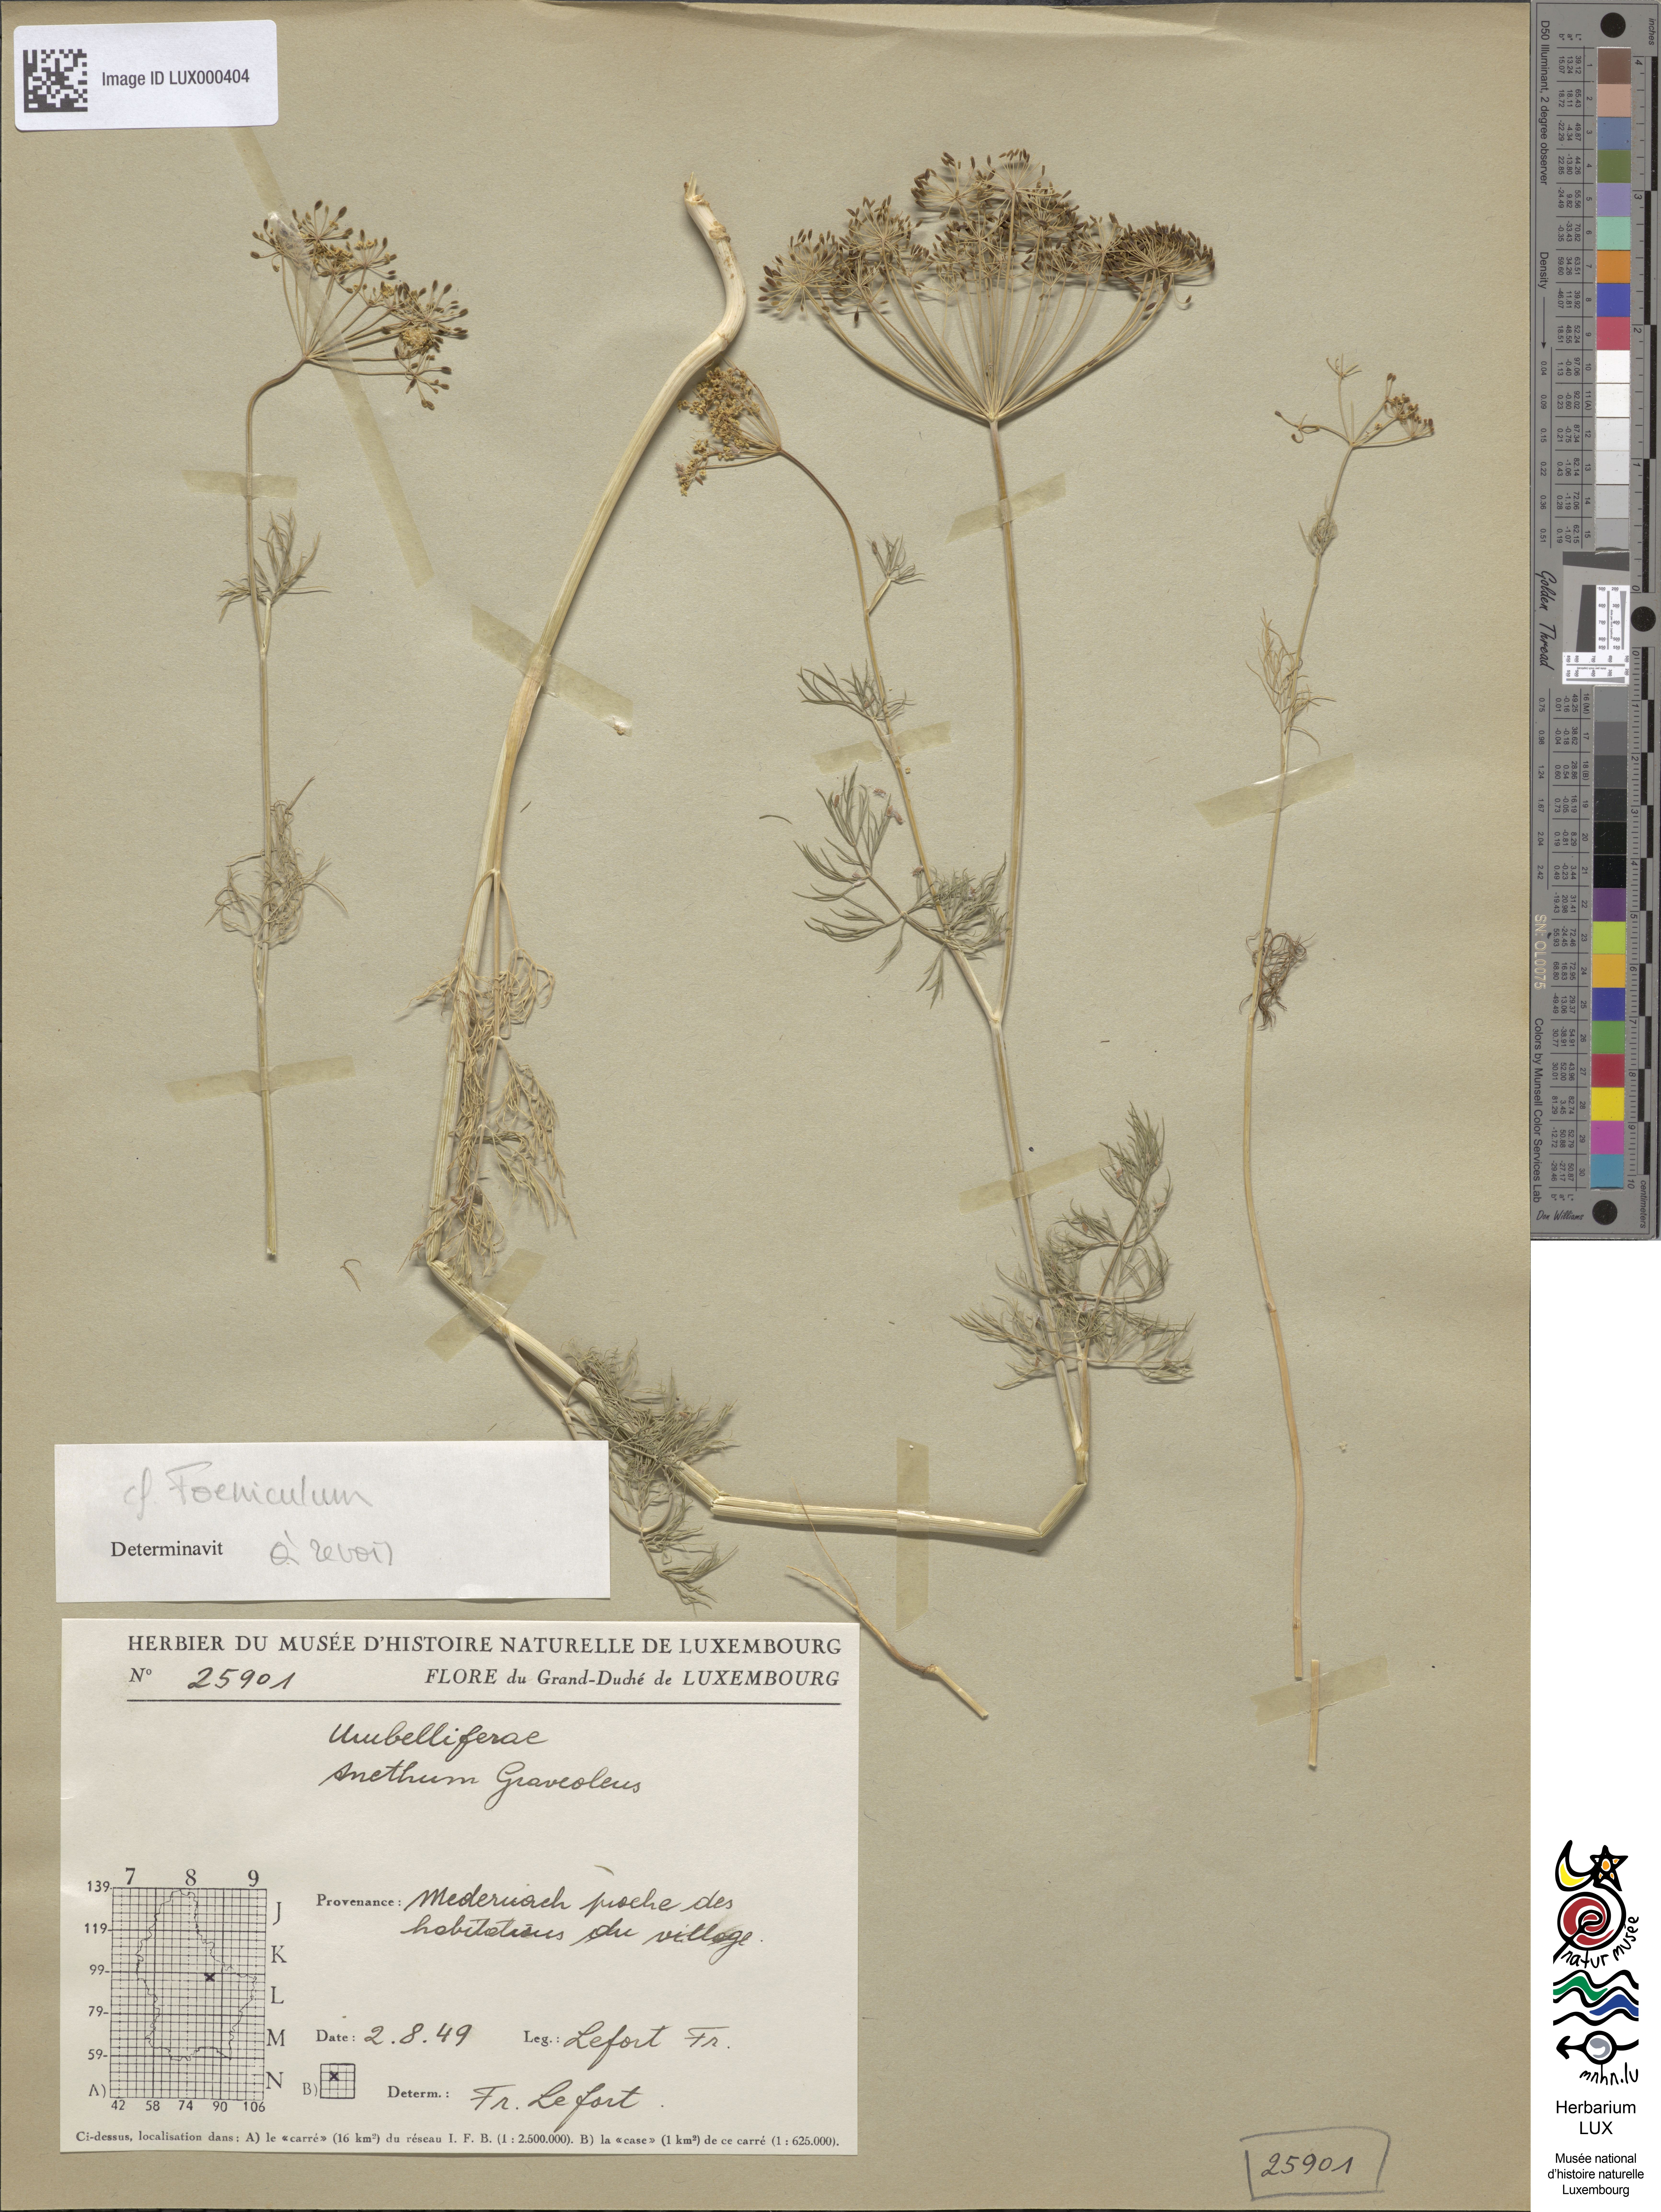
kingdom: Plantae
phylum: Tracheophyta
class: Magnoliopsida
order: Apiales
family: Apiaceae
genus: Anethum
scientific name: Anethum graveolens
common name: Dill
